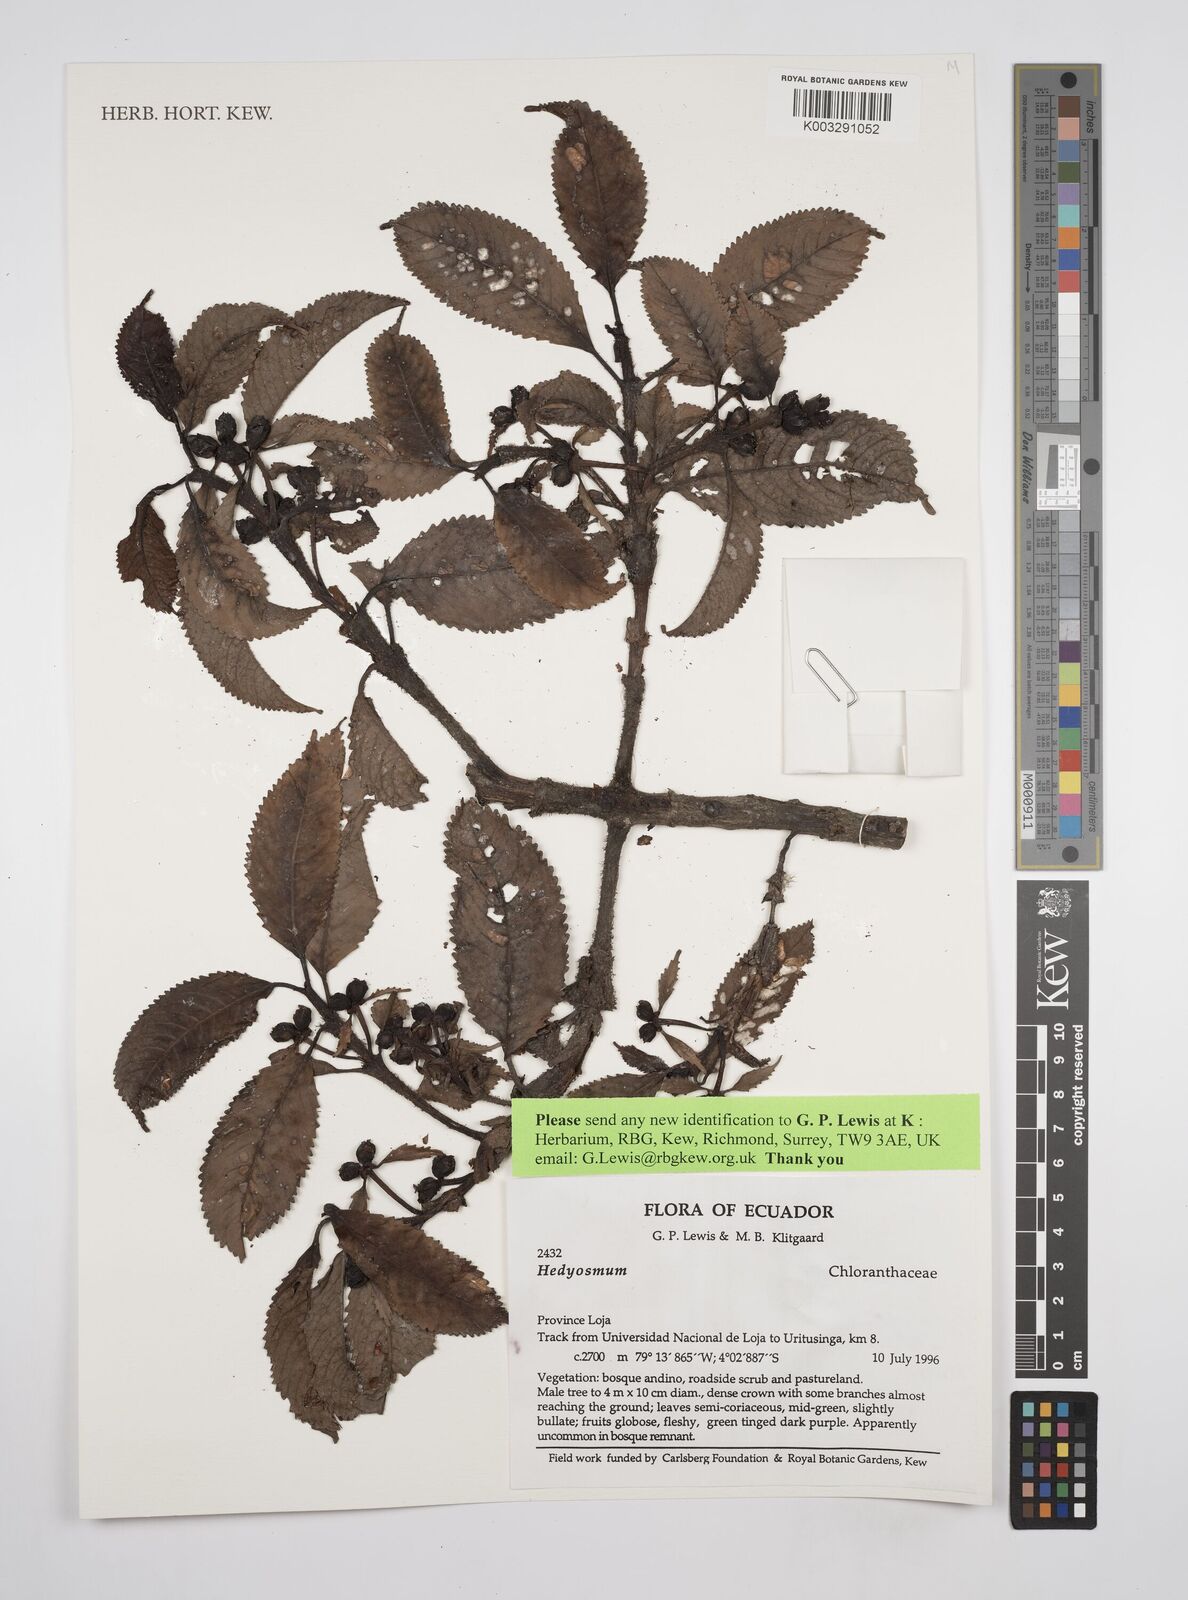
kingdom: Plantae
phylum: Tracheophyta
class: Magnoliopsida
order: Chloranthales
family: Chloranthaceae
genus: Hedyosmum
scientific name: Hedyosmum
